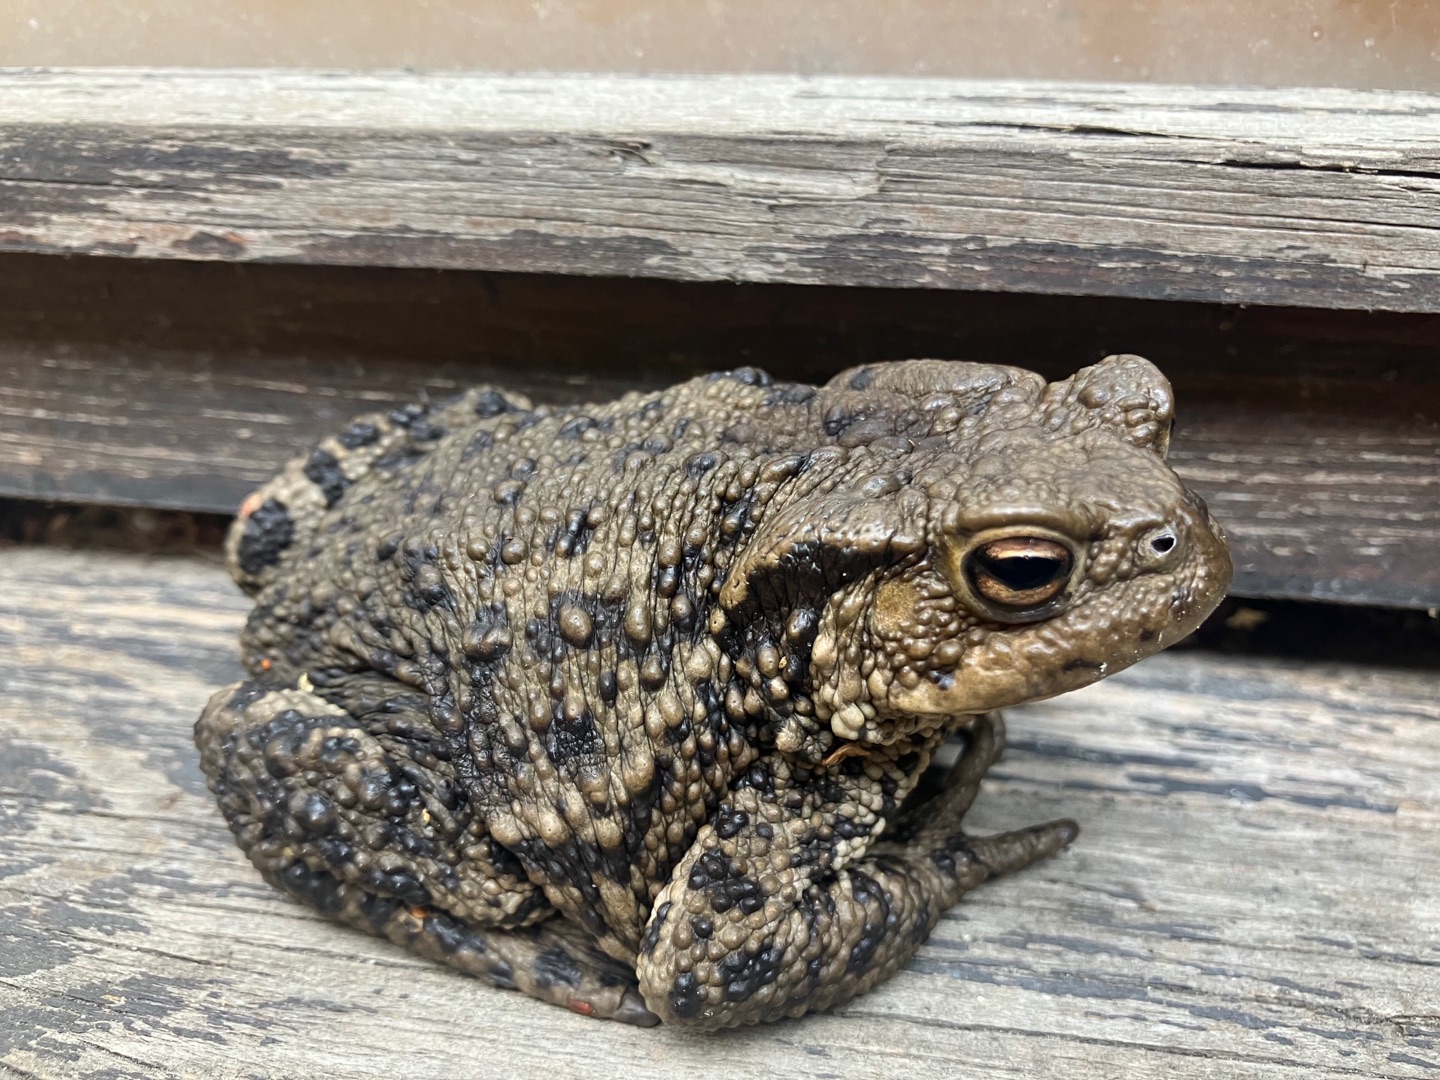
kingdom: Animalia
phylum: Chordata
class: Amphibia
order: Anura
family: Bufonidae
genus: Bufo
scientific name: Bufo bufo
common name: Skrubtudse
